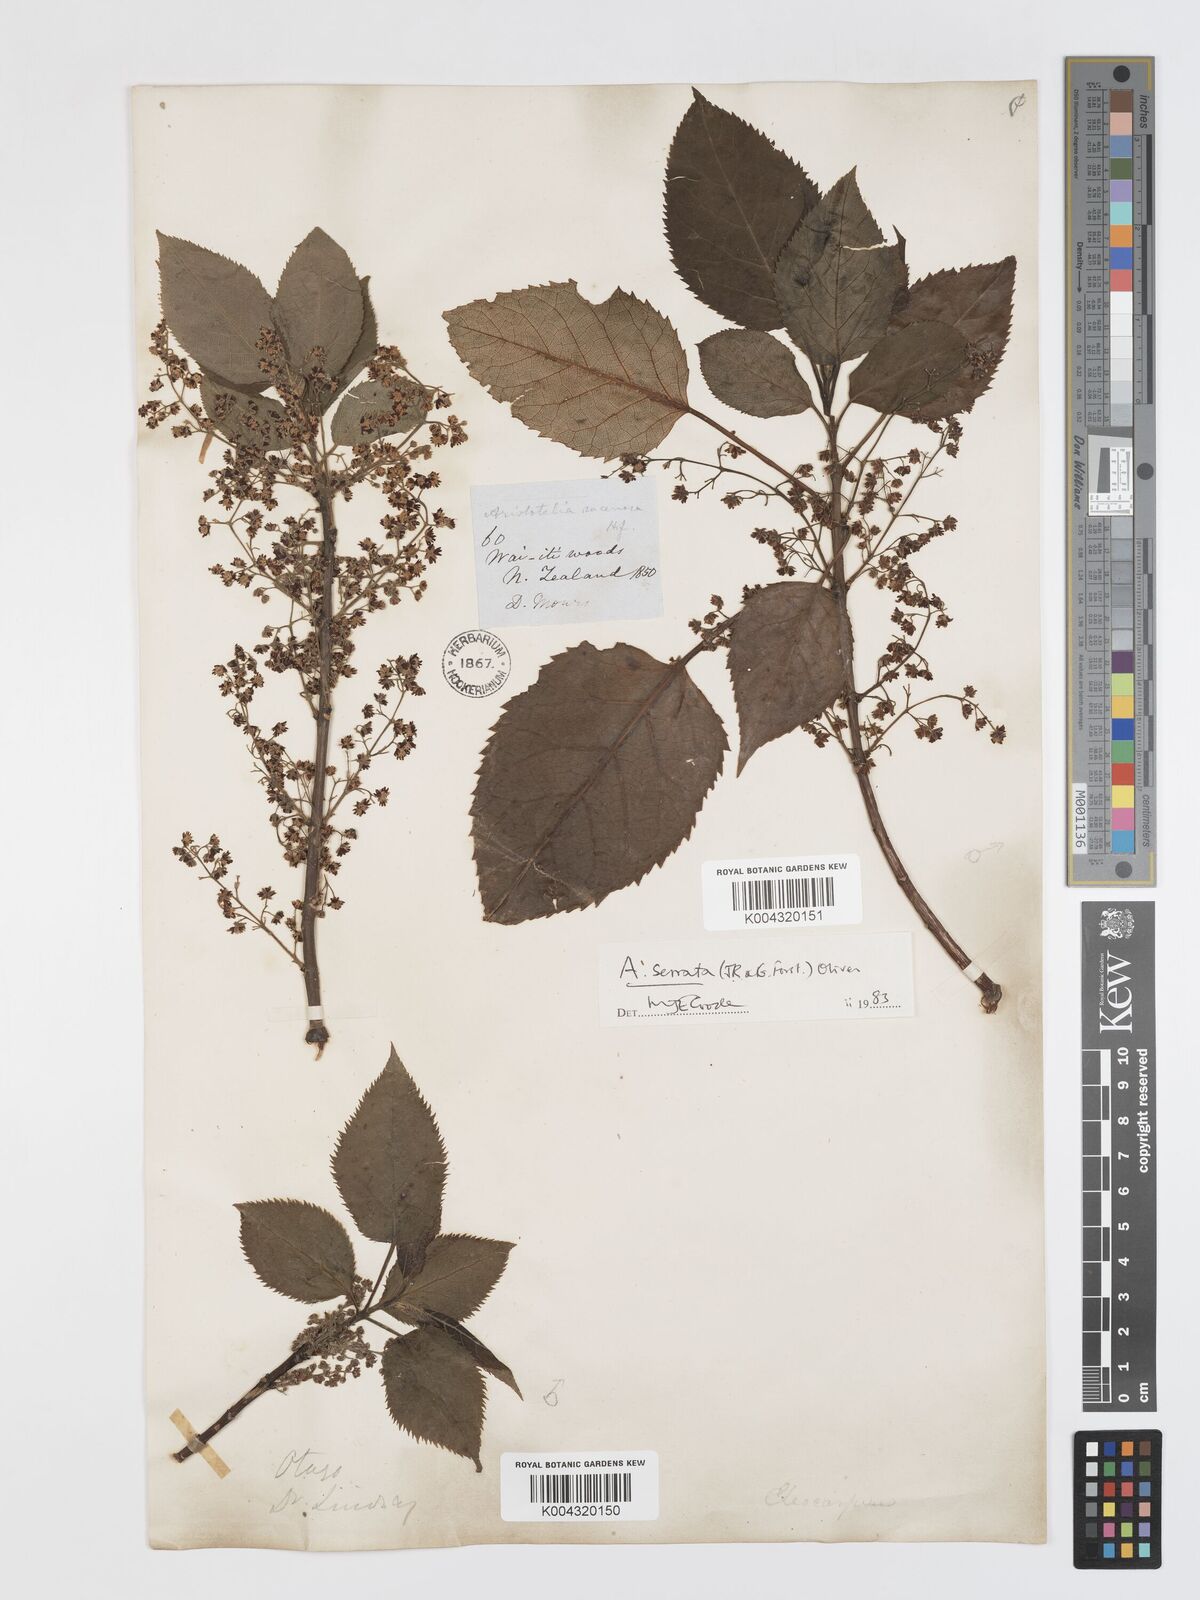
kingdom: Plantae
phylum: Tracheophyta
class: Magnoliopsida
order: Oxalidales
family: Elaeocarpaceae
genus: Aristotelia
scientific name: Aristotelia serrata
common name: New zealand wineberry
